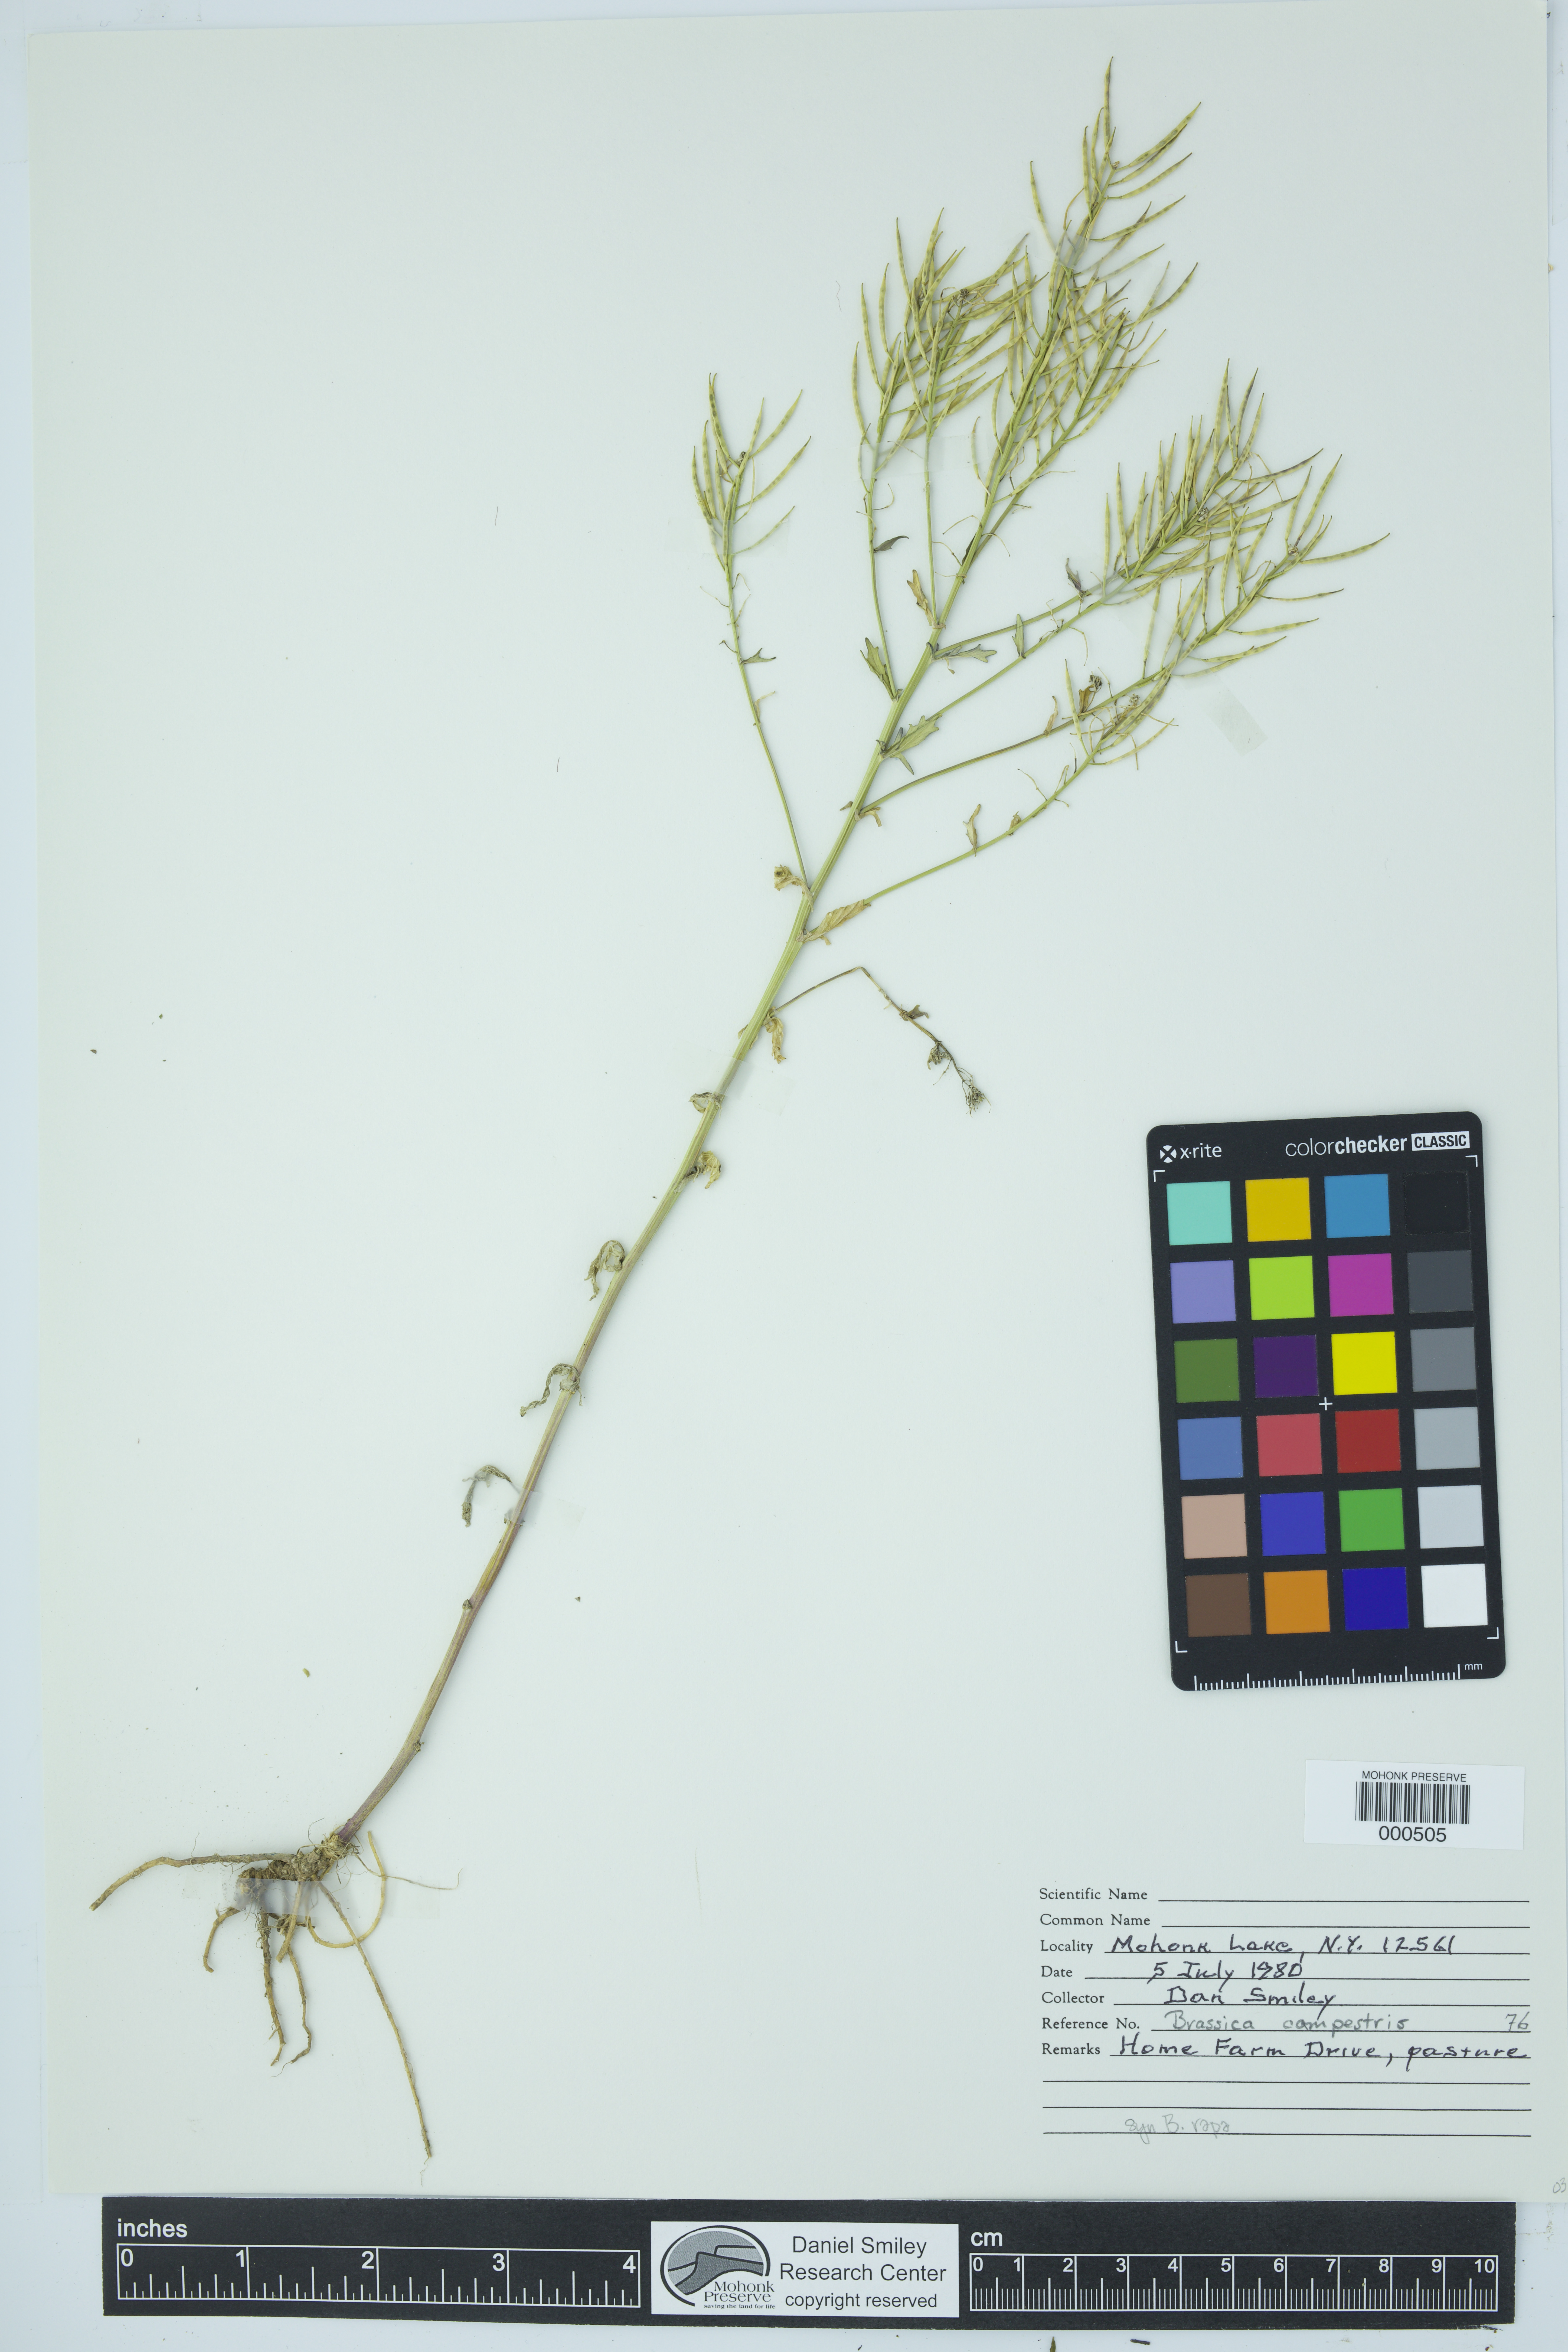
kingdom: Plantae
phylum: Tracheophyta
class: Magnoliopsida
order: Brassicales
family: Brassicaceae
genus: Brassica
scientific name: Brassica rapa
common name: Field mustard
